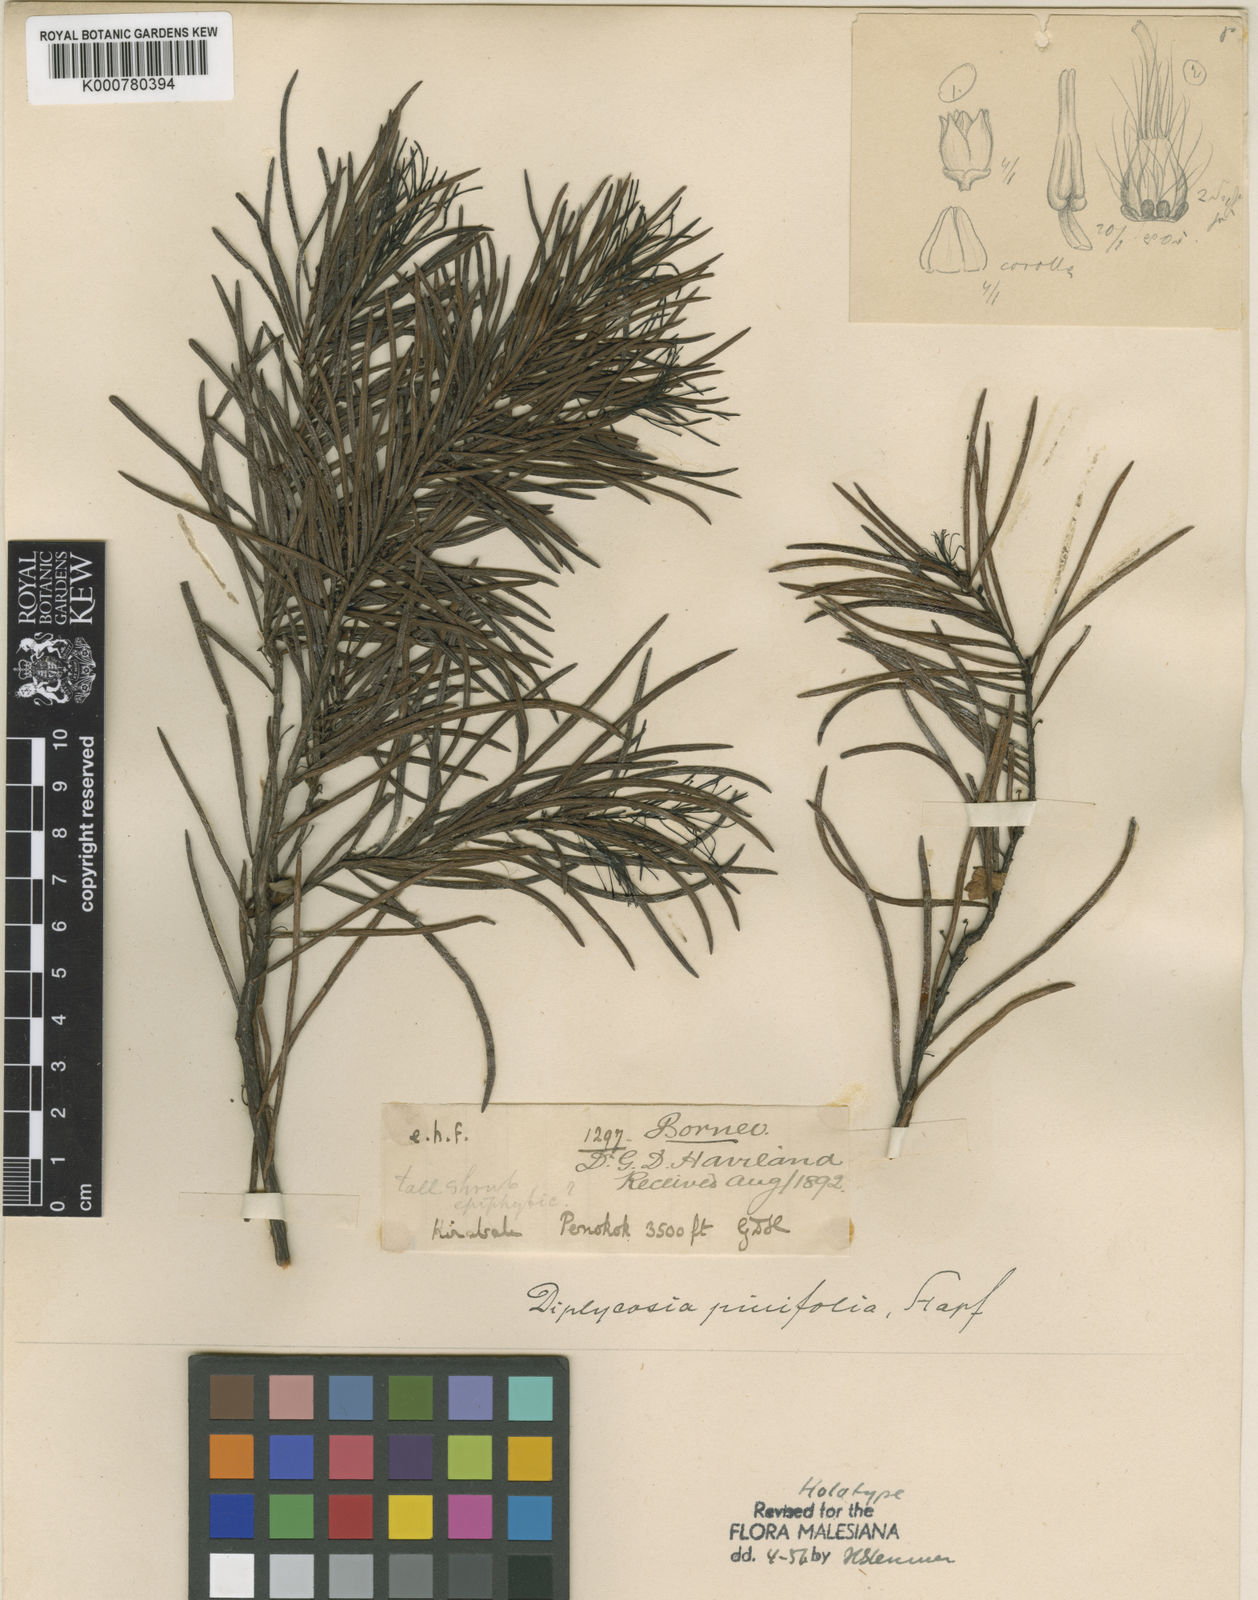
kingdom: Plantae
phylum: Tracheophyta
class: Magnoliopsida
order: Ericales
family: Ericaceae
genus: Gaultheria
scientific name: Gaultheria pinifolia
